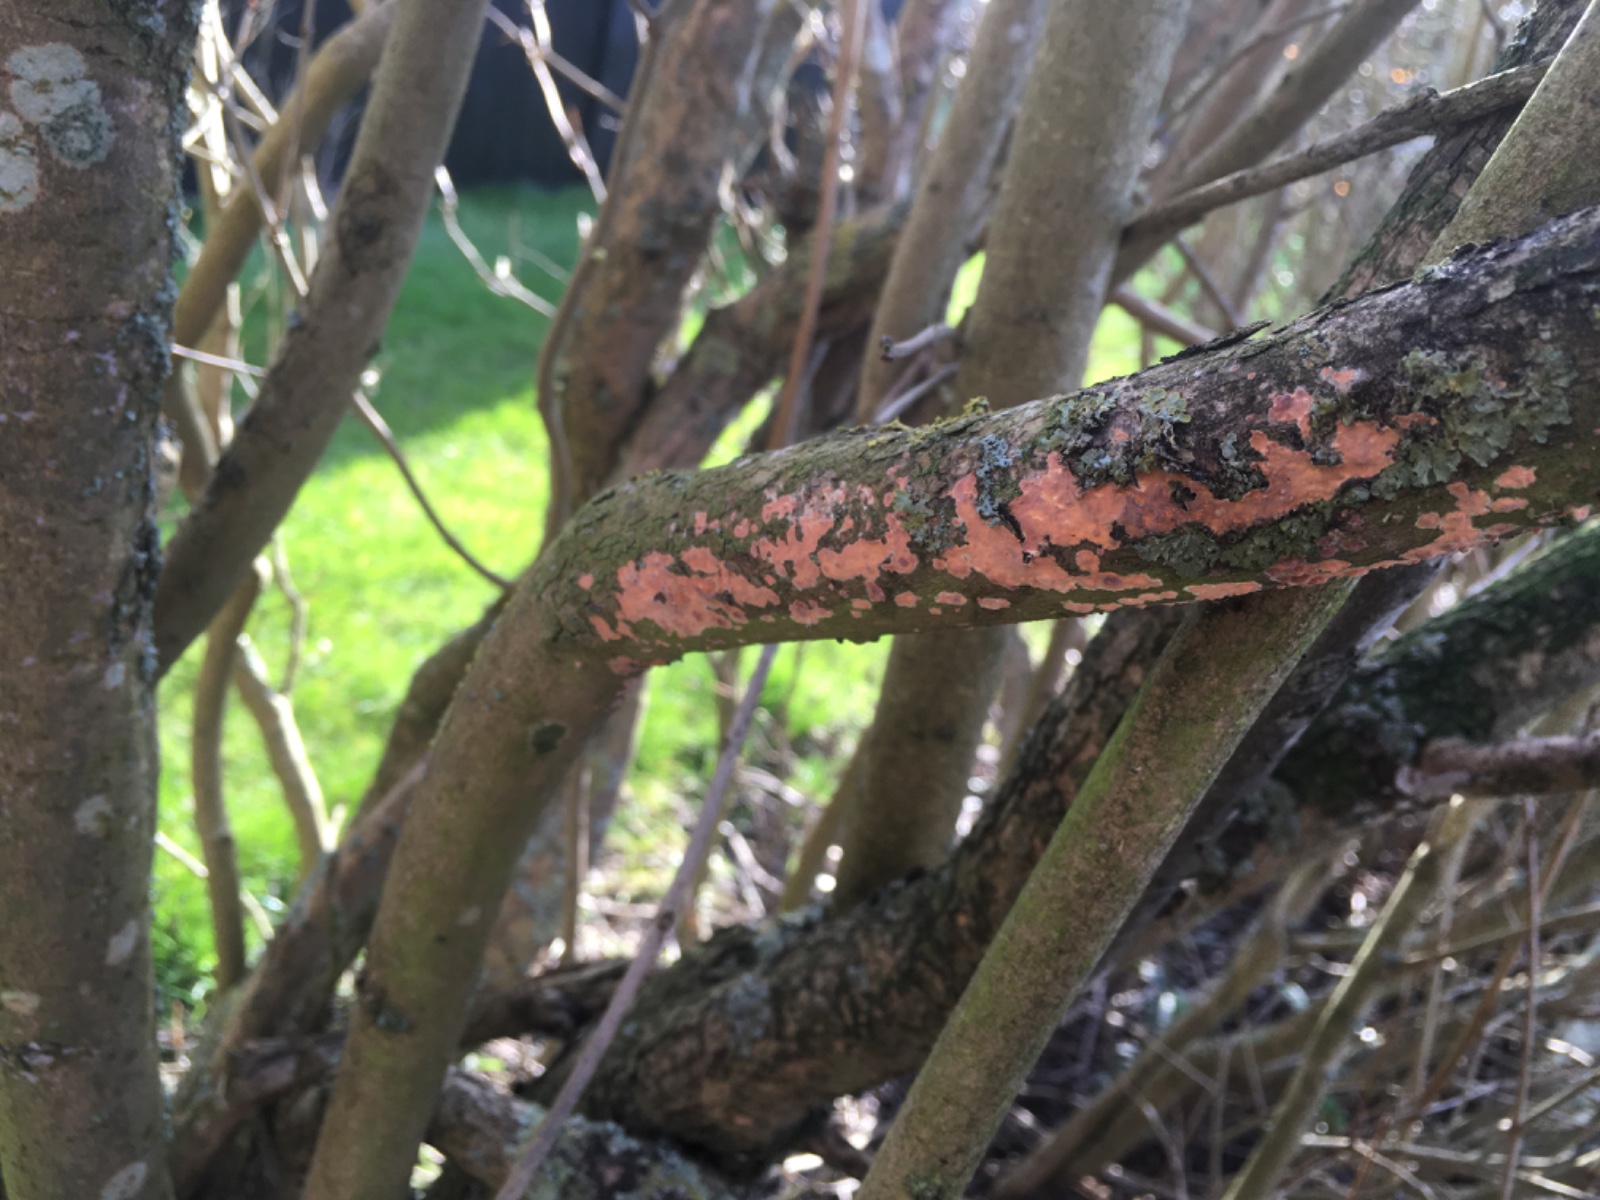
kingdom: Fungi
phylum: Basidiomycota
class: Agaricomycetes
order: Russulales
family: Peniophoraceae
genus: Peniophora
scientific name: Peniophora incarnata
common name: laksefarvet voksskind
